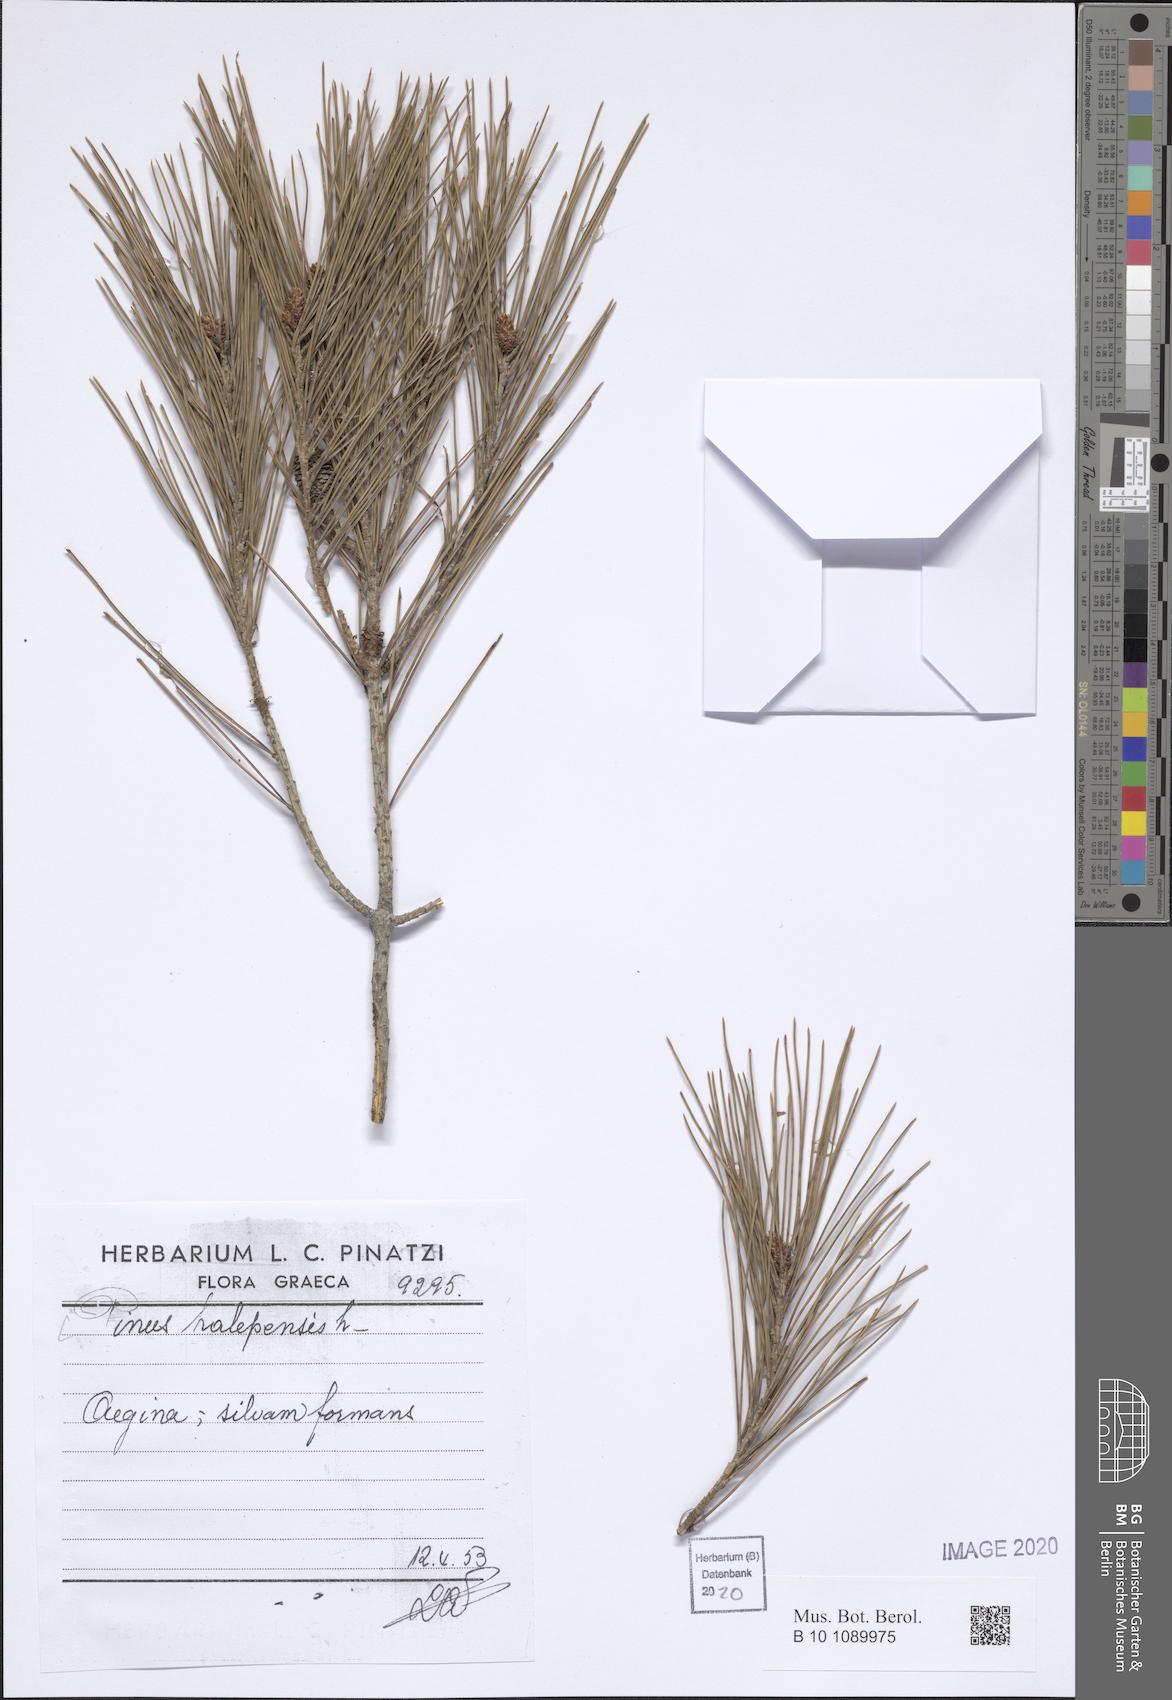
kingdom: Plantae
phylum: Tracheophyta
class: Pinopsida
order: Pinales
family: Pinaceae
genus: Pinus
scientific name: Pinus halepensis
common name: Aleppo pine
